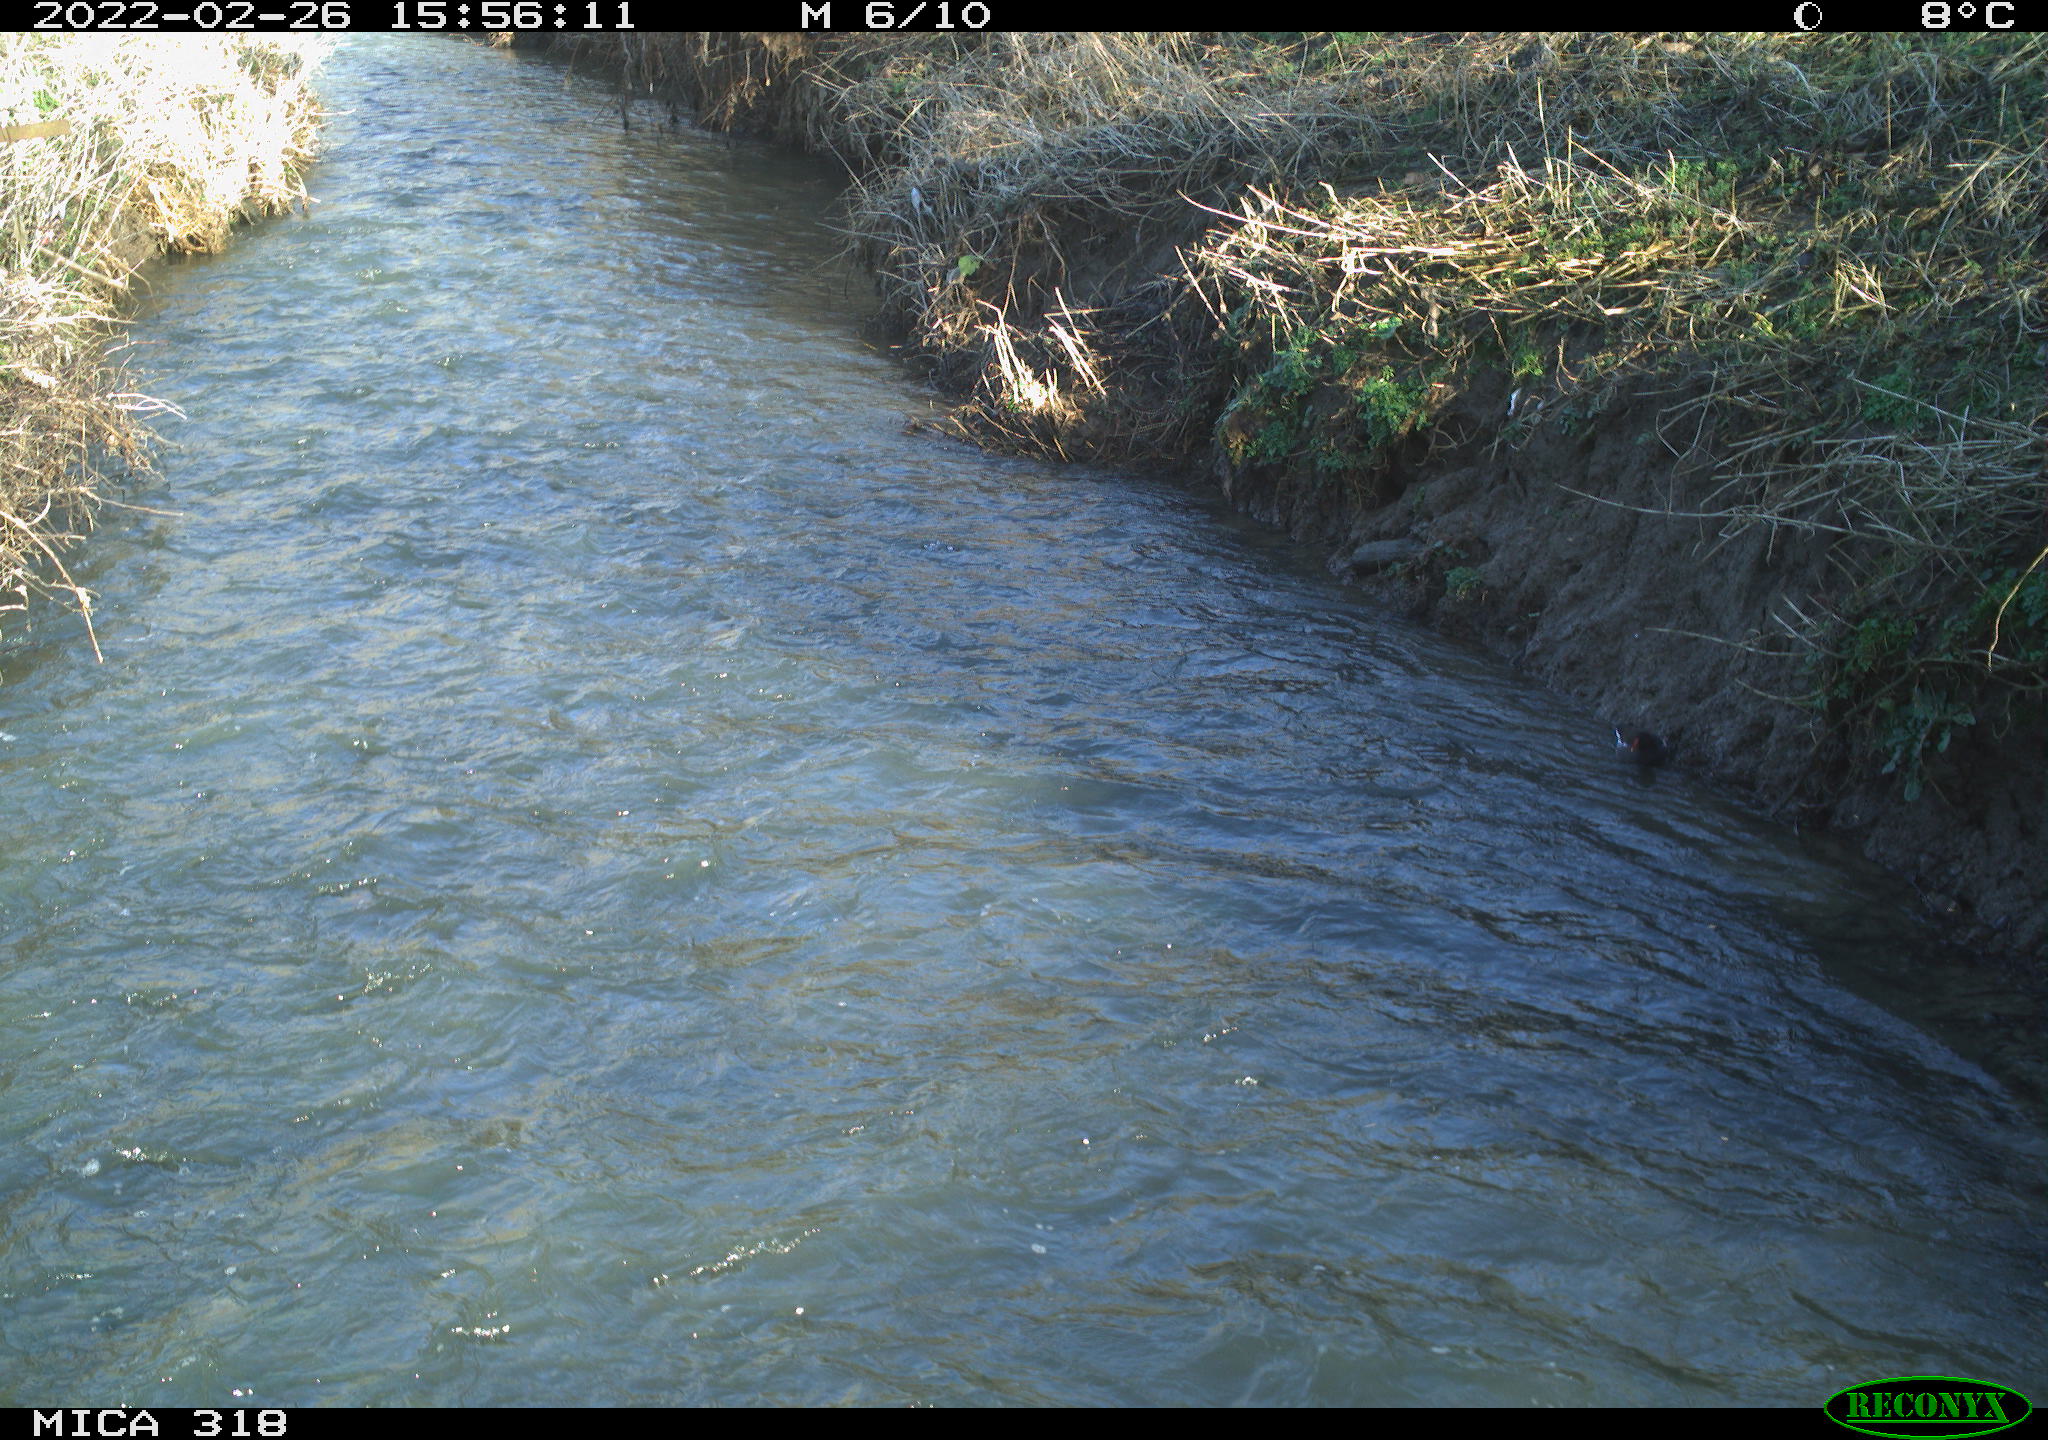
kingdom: Animalia
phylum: Chordata
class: Aves
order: Gruiformes
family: Rallidae
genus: Gallinula
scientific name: Gallinula chloropus
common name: Common moorhen
